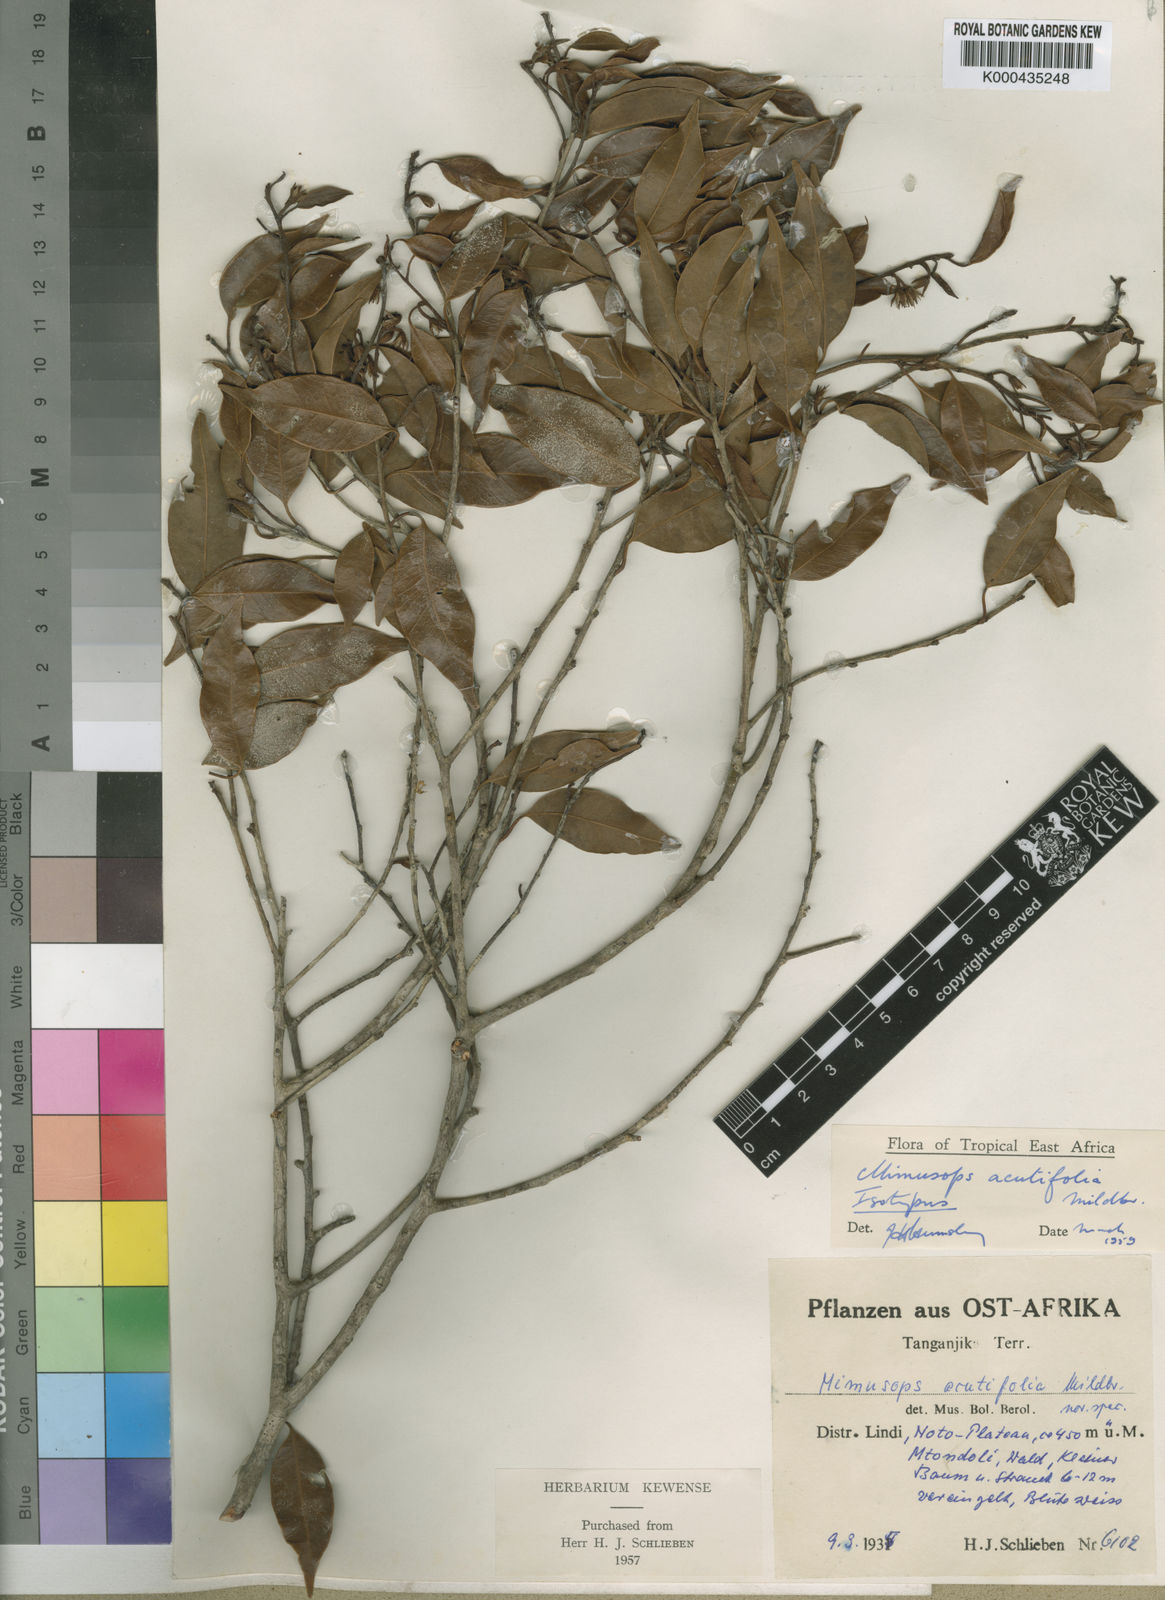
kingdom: Plantae
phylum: Tracheophyta
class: Magnoliopsida
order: Ericales
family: Sapotaceae
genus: Mimusops
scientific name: Mimusops acutifolia
